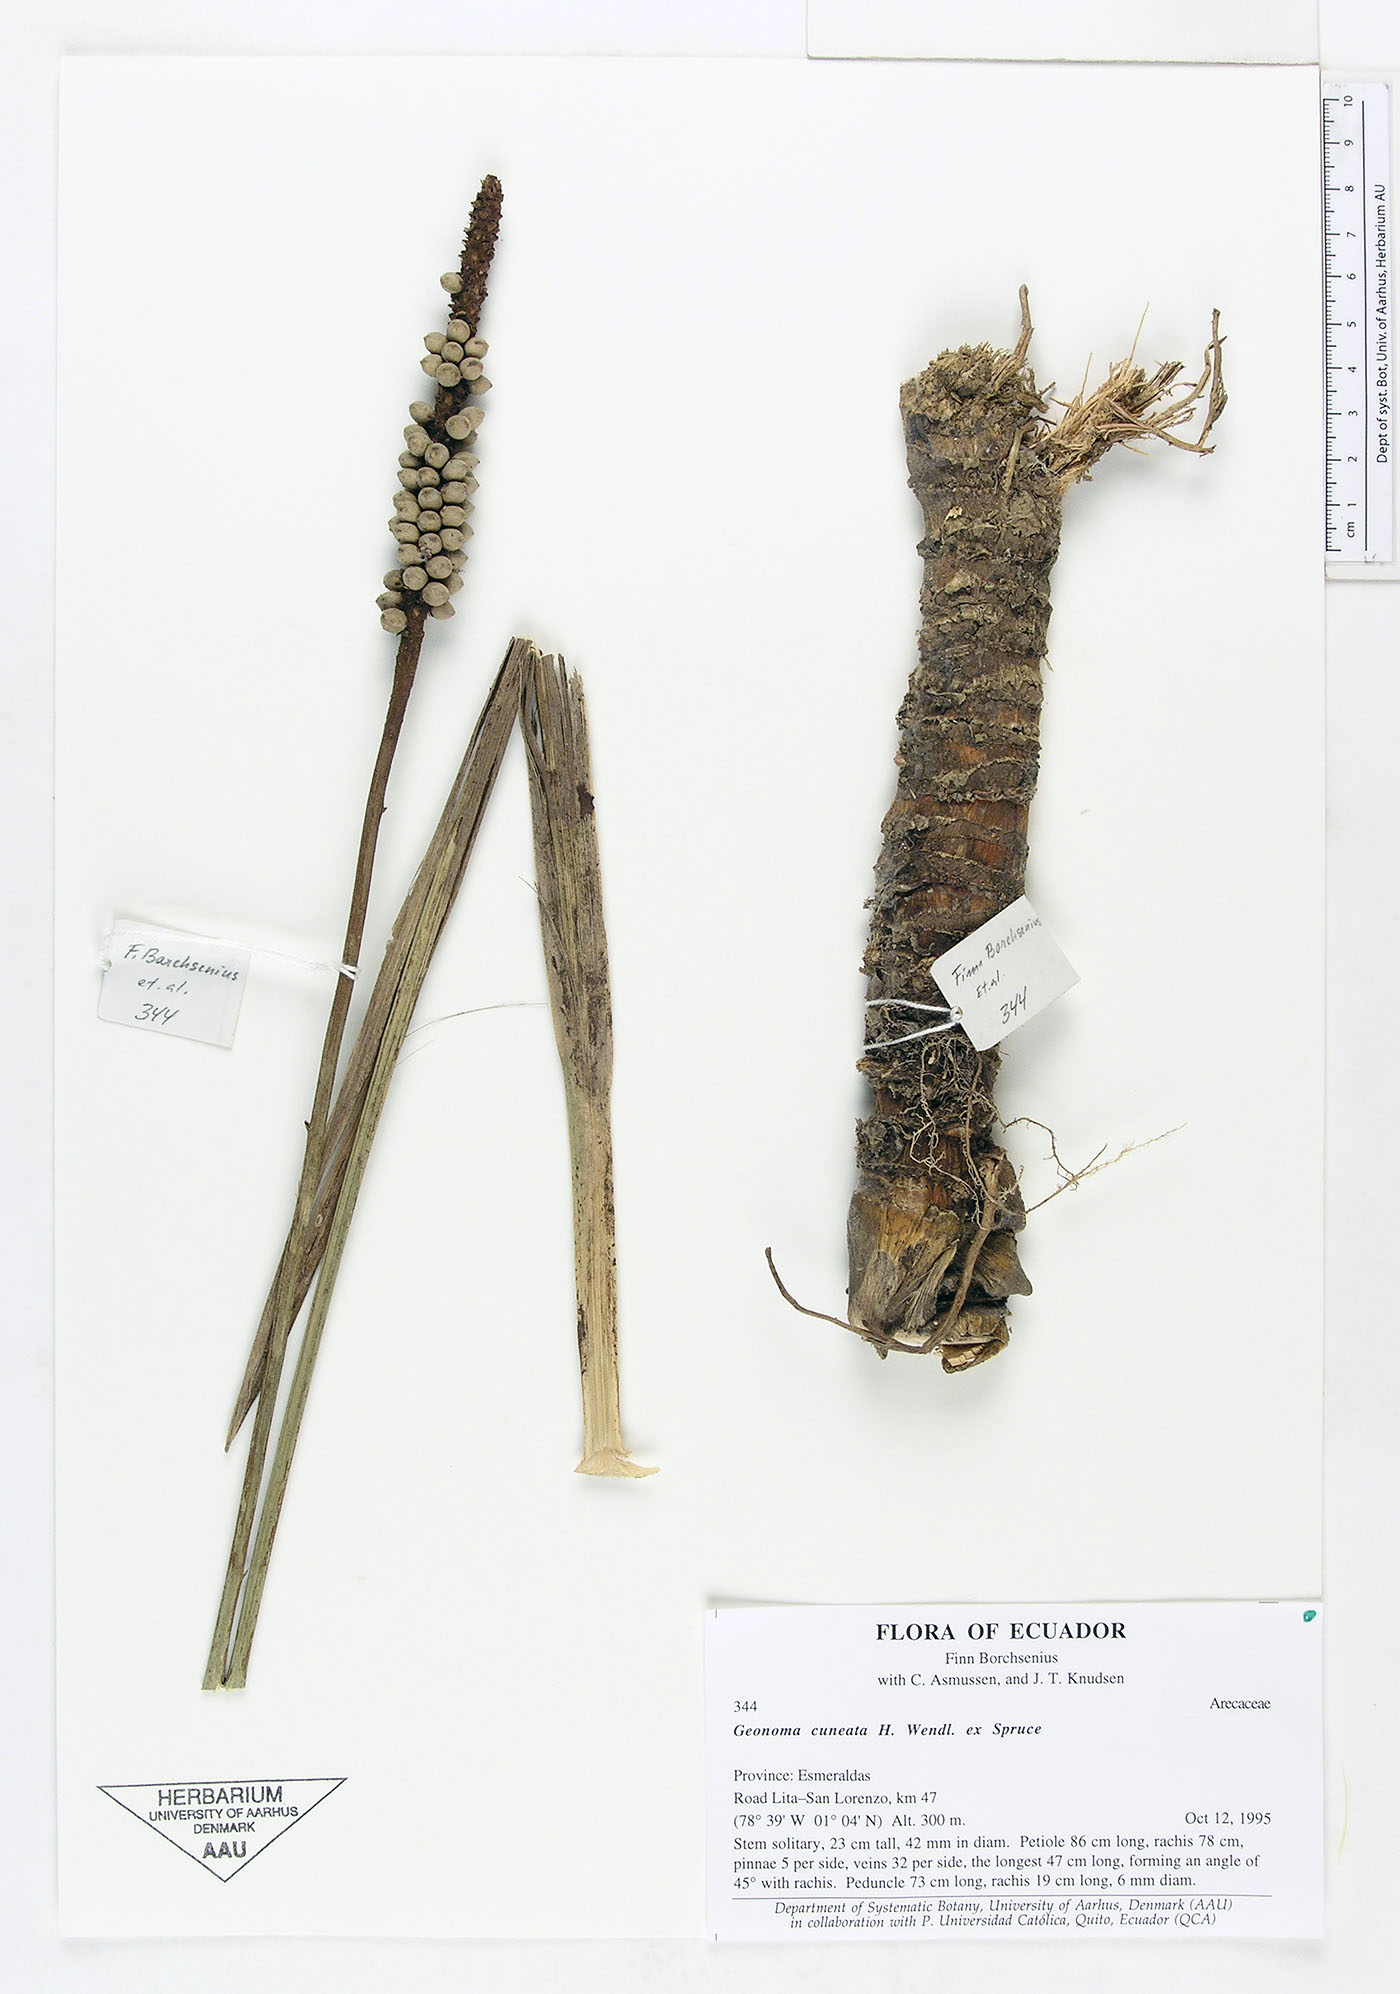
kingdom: Plantae
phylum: Tracheophyta
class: Liliopsida
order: Arecales
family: Arecaceae
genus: Geonoma
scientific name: Geonoma cuneata
